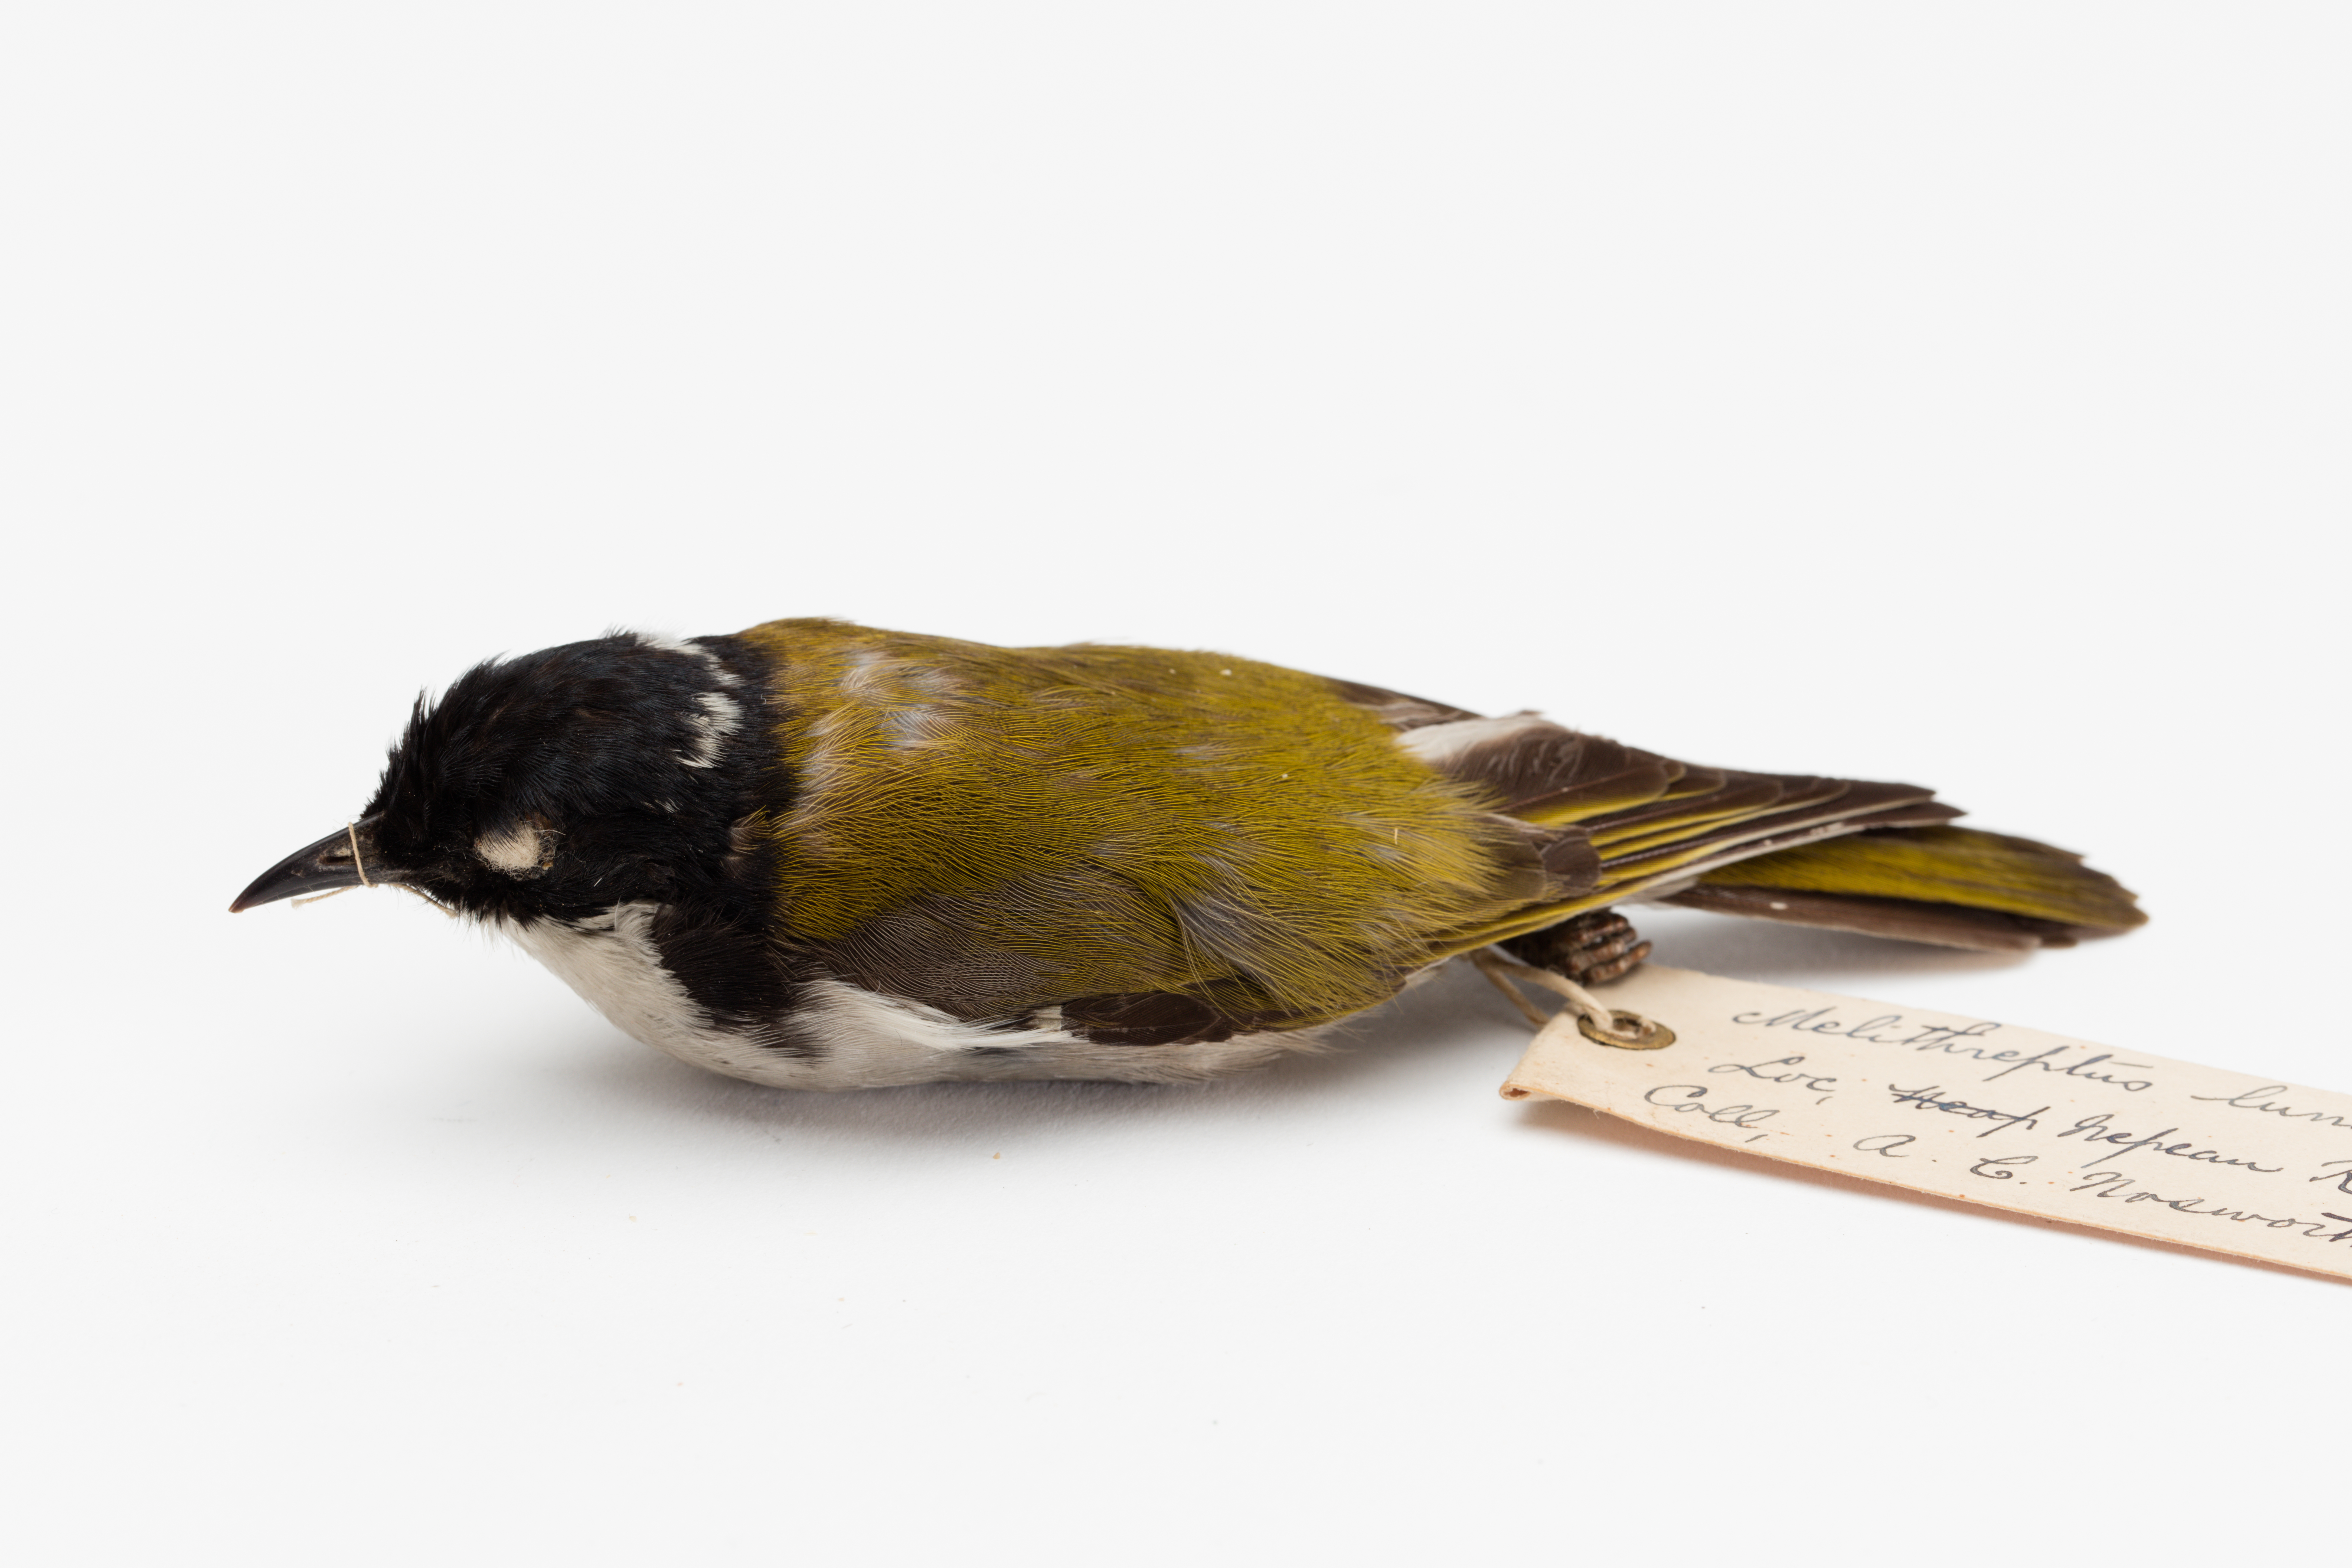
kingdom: Animalia
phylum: Chordata
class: Aves
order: Passeriformes
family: Meliphagidae
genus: Melithreptus
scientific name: Melithreptus lunatus
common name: White-naped honeyeater
